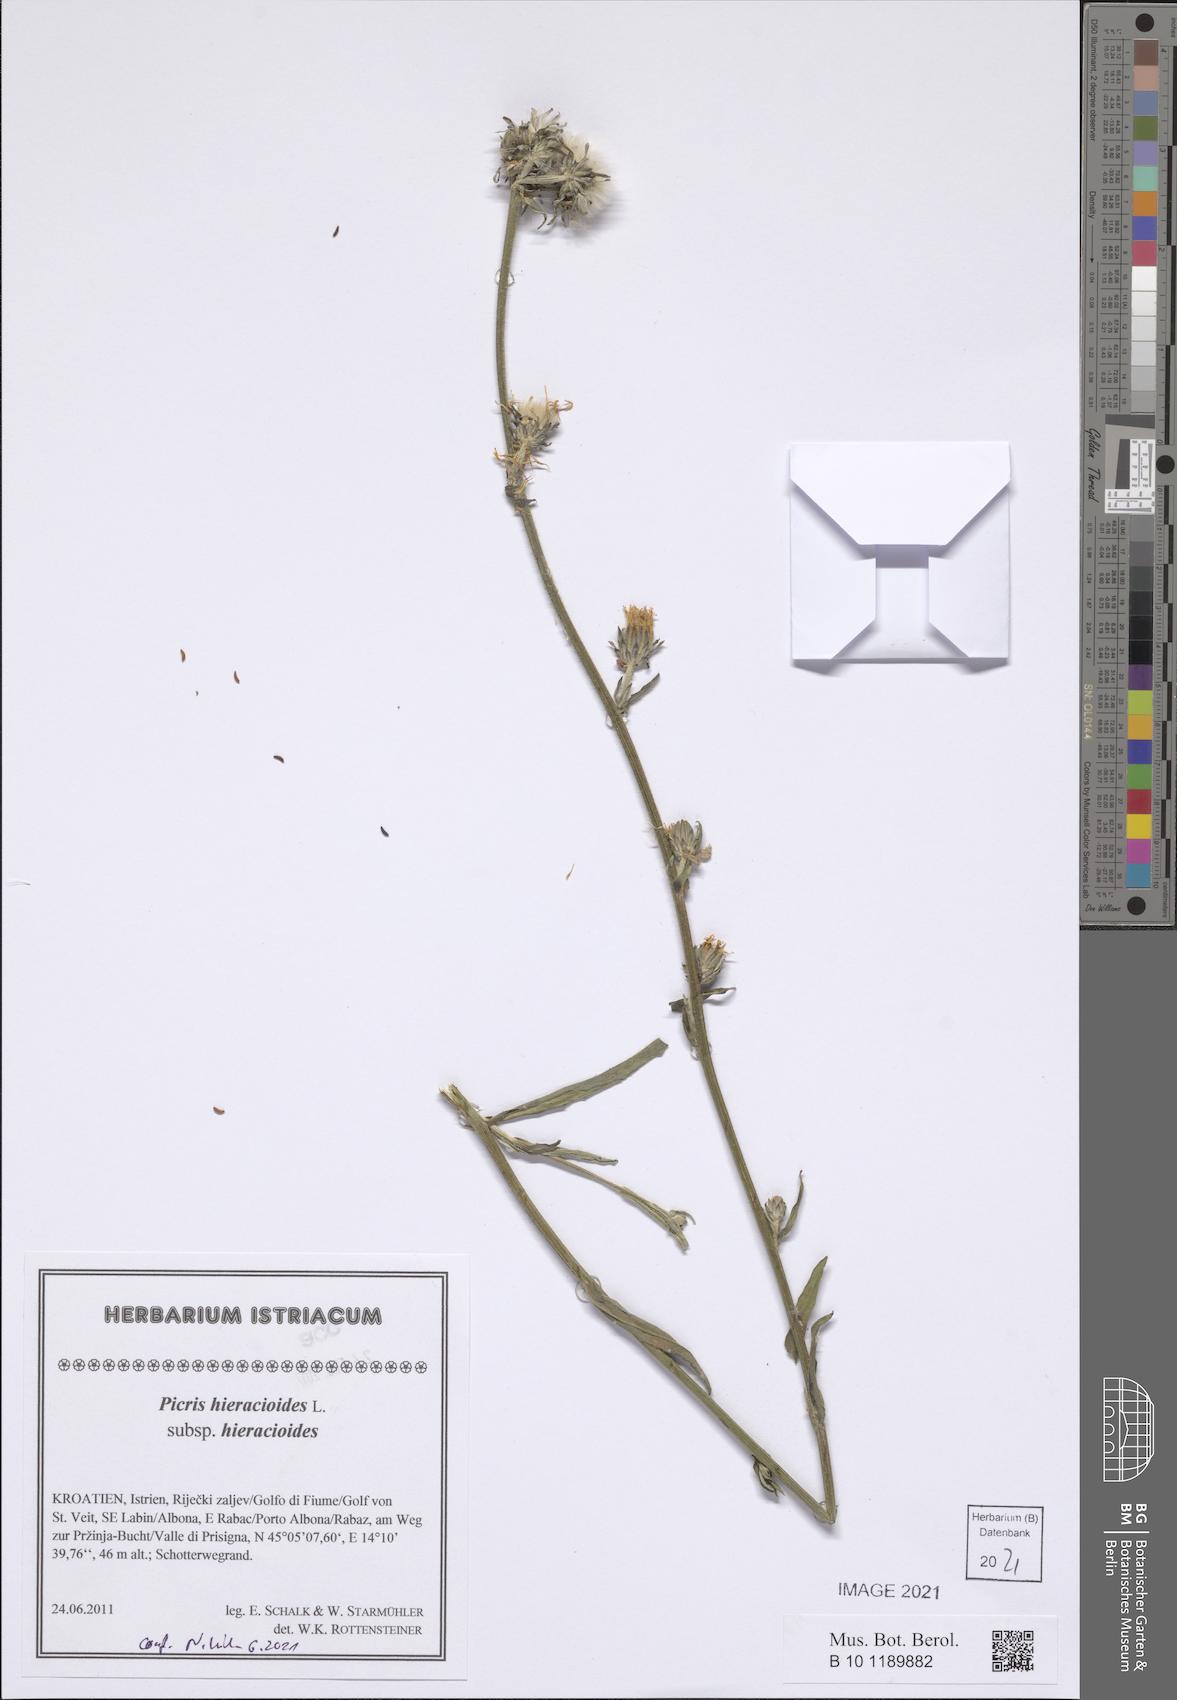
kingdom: Plantae
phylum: Tracheophyta
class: Magnoliopsida
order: Asterales
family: Asteraceae
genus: Picris
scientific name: Picris hieracioides
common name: Hawkweed oxtongue
